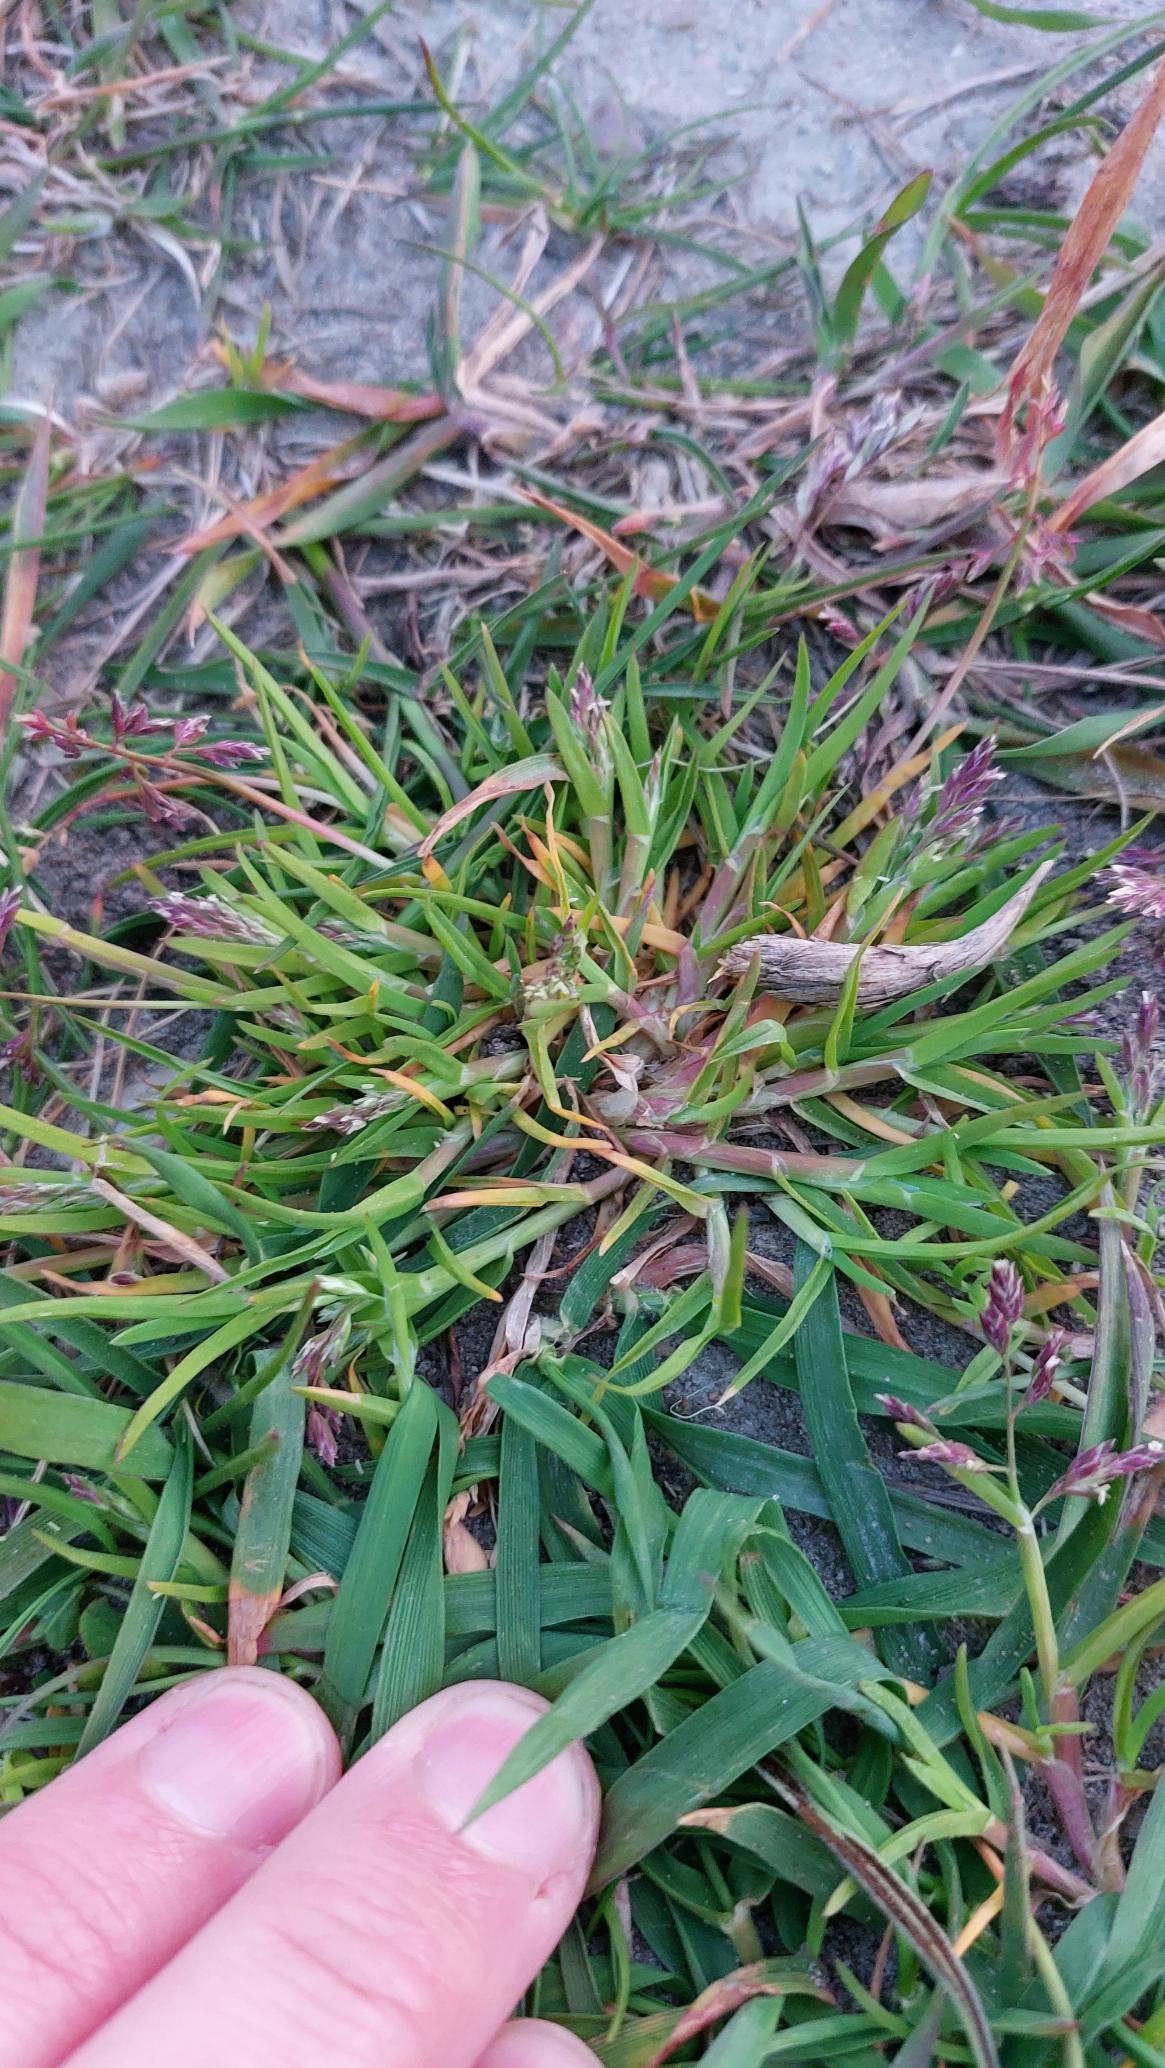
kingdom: Plantae
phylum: Tracheophyta
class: Liliopsida
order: Poales
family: Poaceae
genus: Poa
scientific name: Poa annua
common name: Enårig rapgræs
